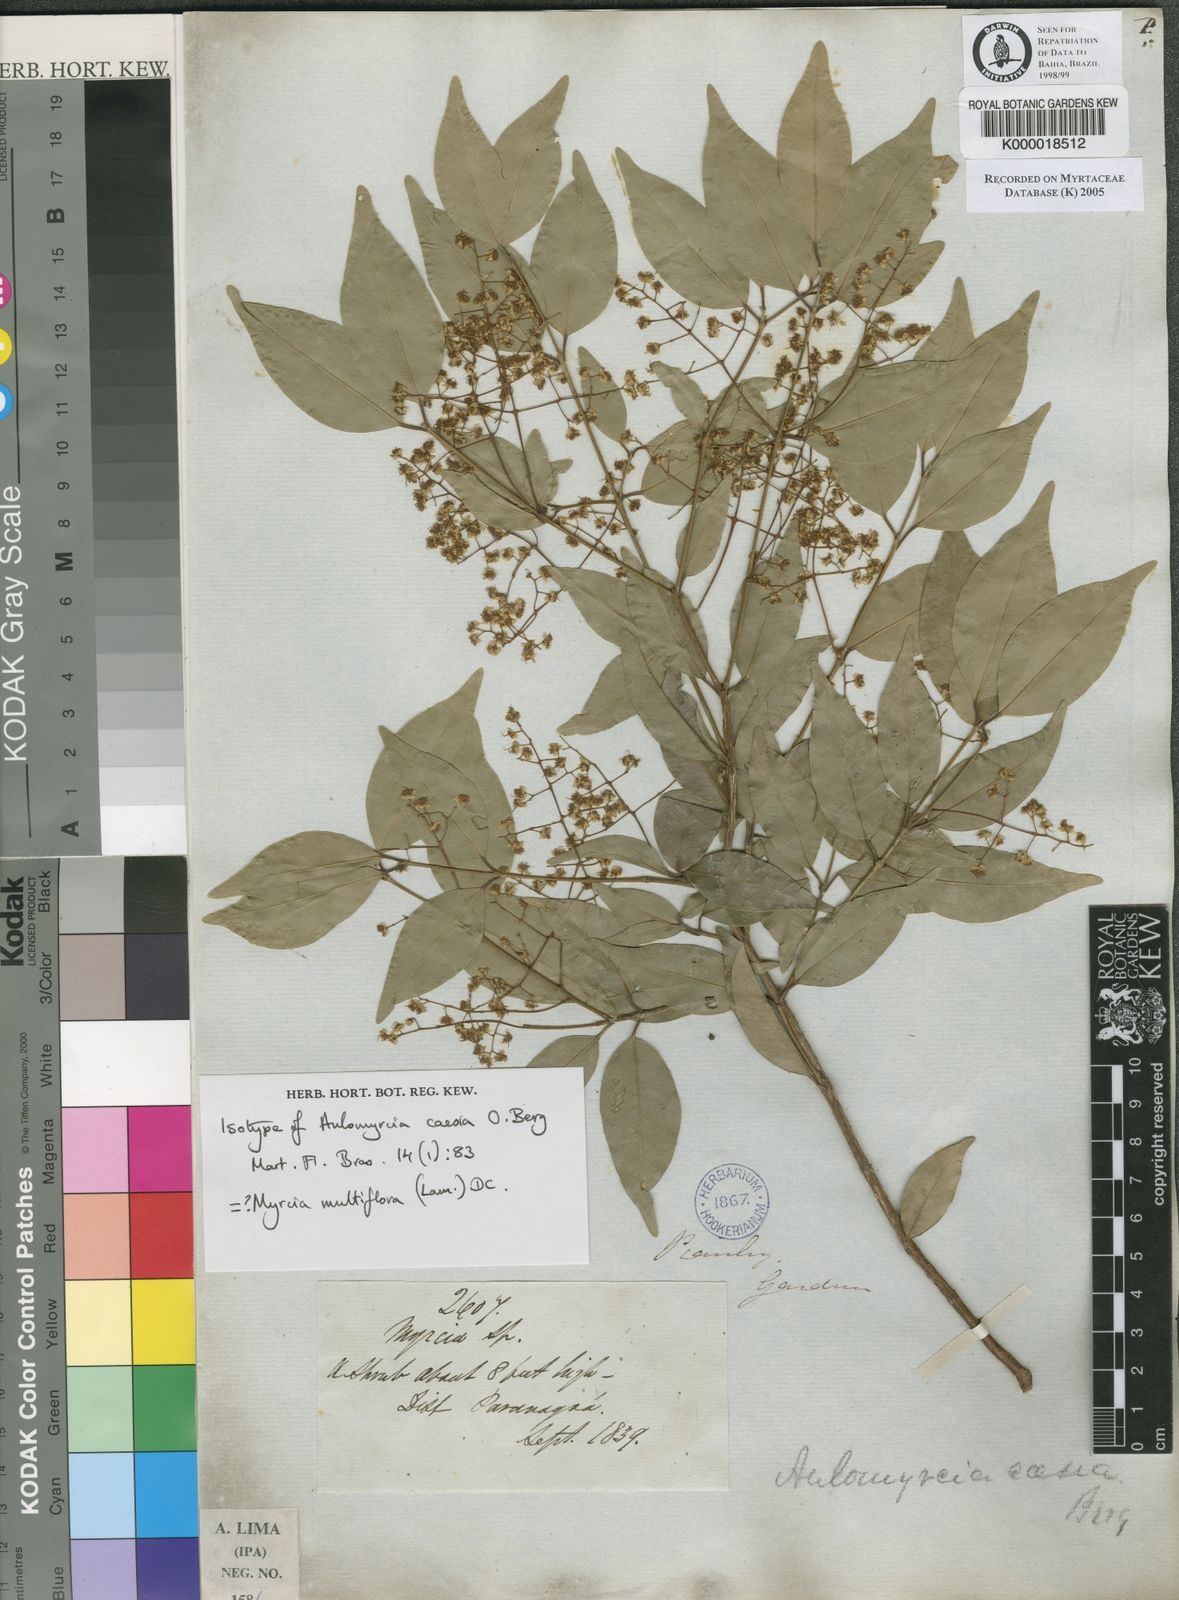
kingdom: Plantae
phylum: Tracheophyta
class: Magnoliopsida
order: Myrtales
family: Myrtaceae
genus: Myrcia
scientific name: Myrcia multiflora
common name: Pedra hume
